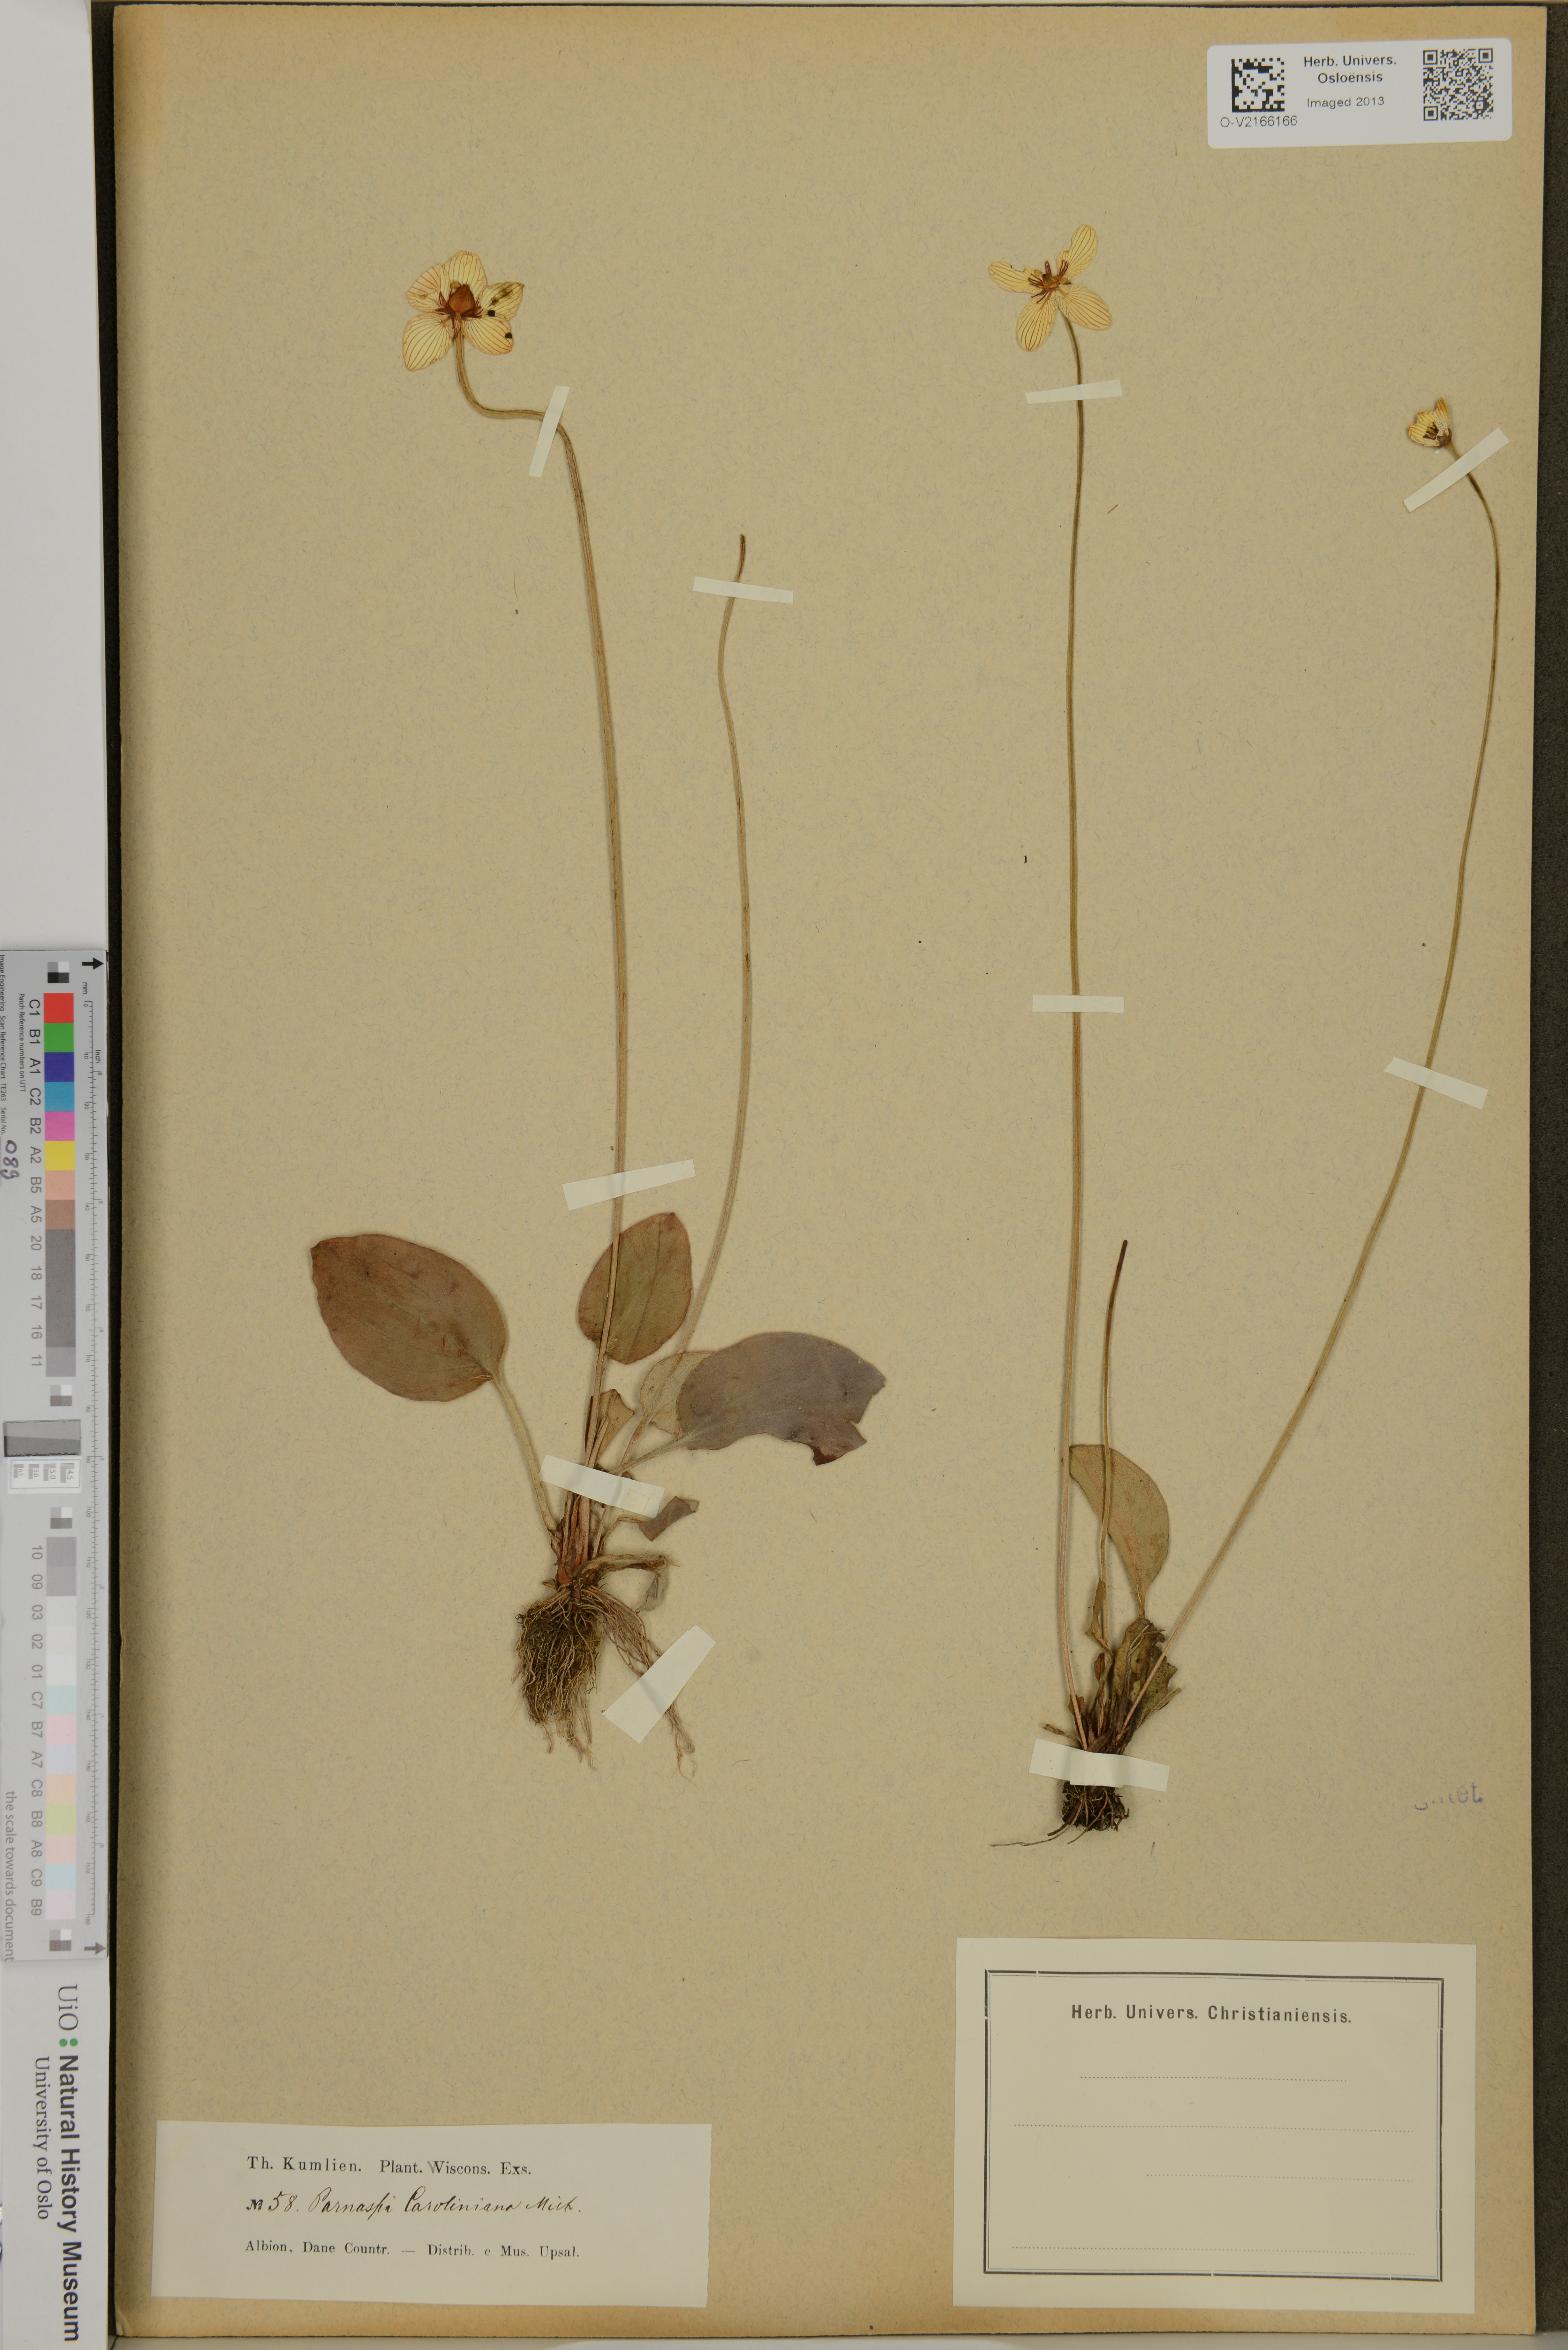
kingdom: Plantae
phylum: Tracheophyta
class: Magnoliopsida
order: Celastrales
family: Parnassiaceae
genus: Parnassia
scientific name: Parnassia caroliniana
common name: Carolina grass of parnassus
